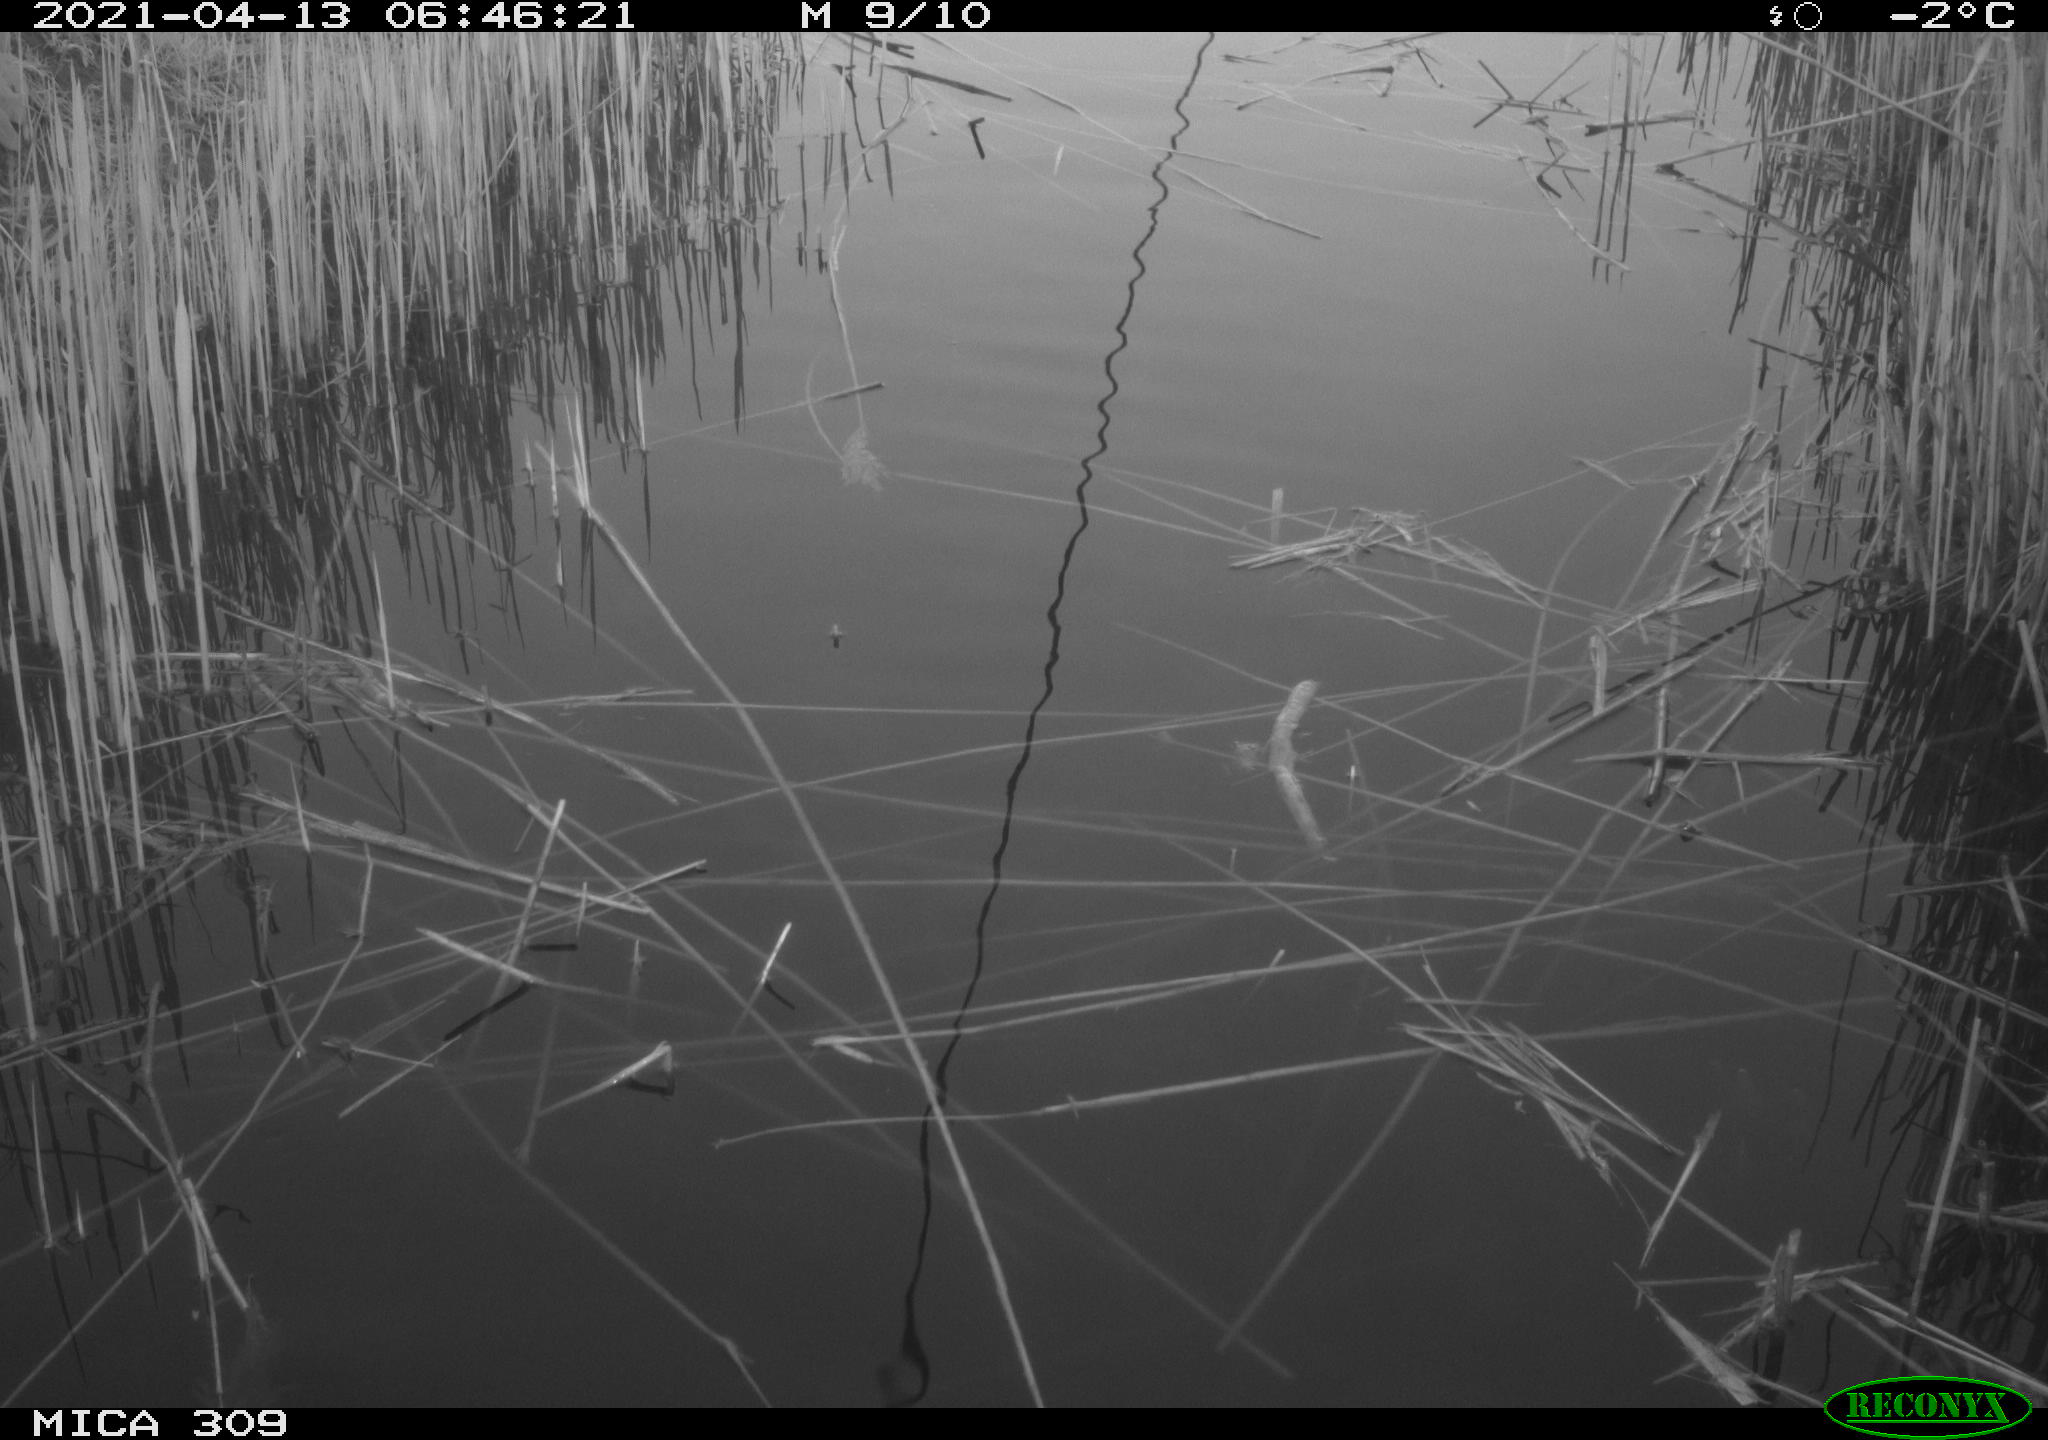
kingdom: Animalia
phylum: Chordata
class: Aves
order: Gruiformes
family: Rallidae
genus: Gallinula
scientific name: Gallinula chloropus
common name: Common moorhen
